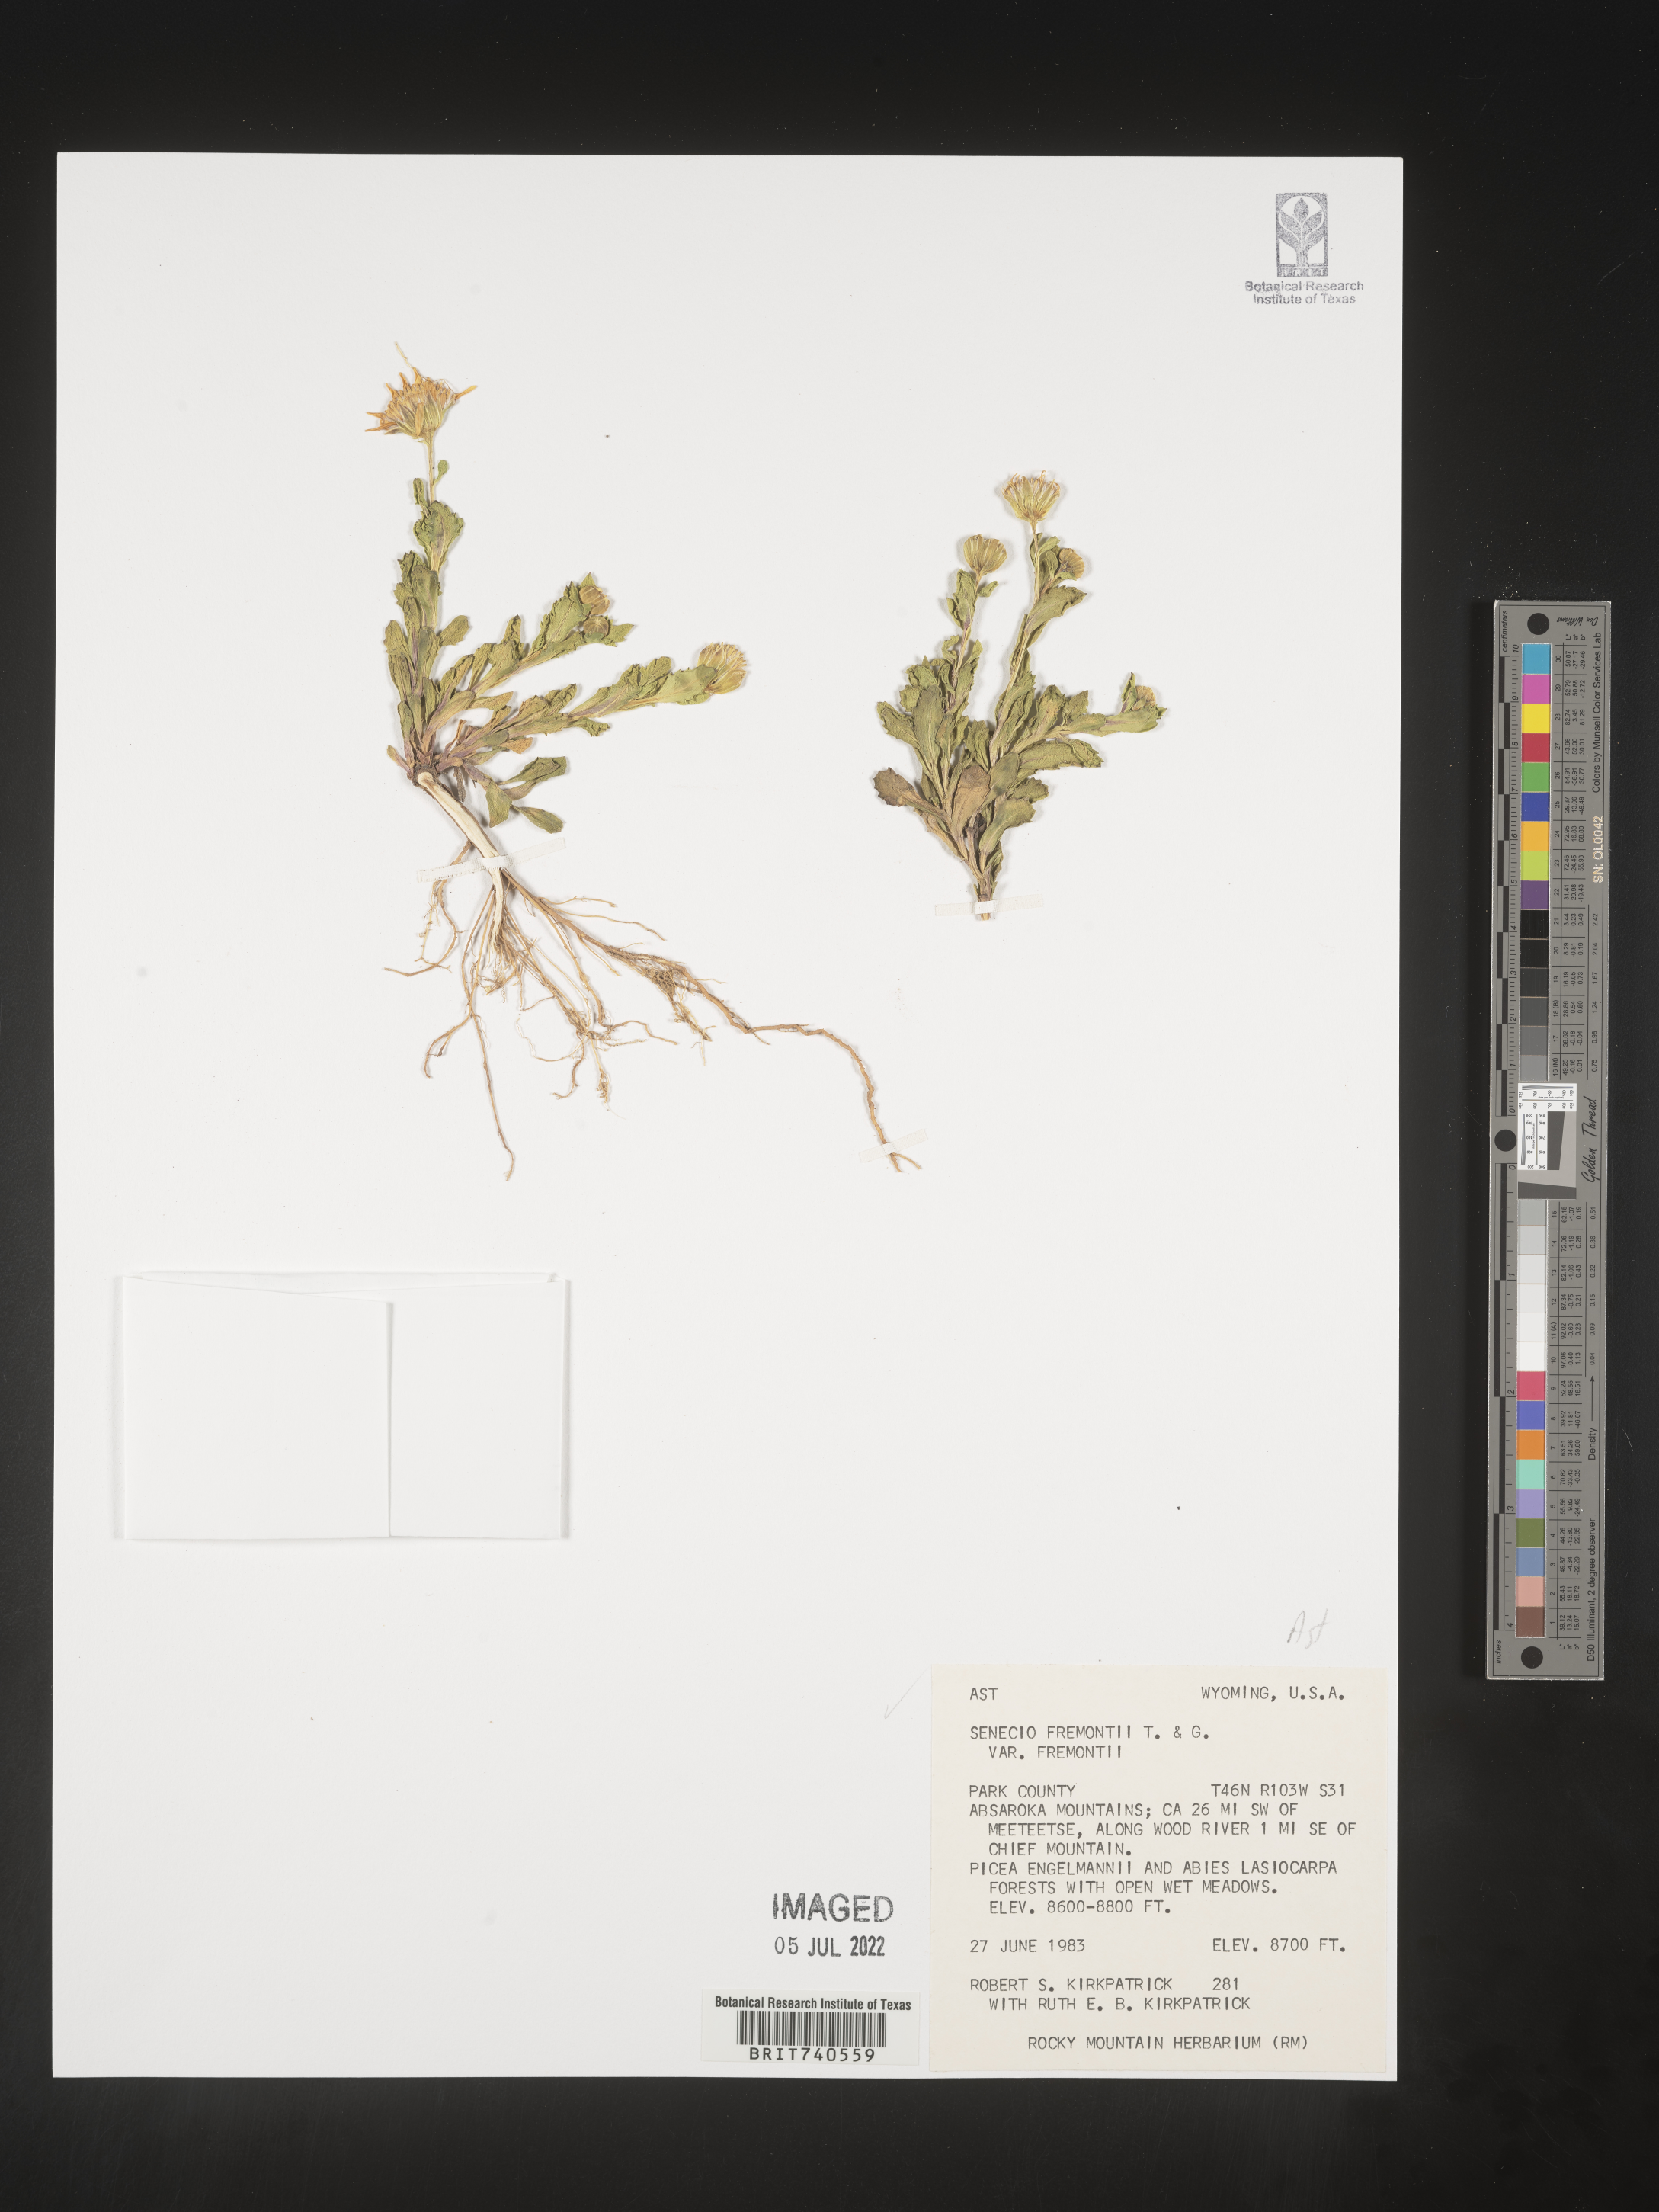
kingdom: Plantae
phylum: Tracheophyta
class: Magnoliopsida
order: Asterales
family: Asteraceae
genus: Senecio
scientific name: Senecio fremontii
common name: Fremont's groundsel
